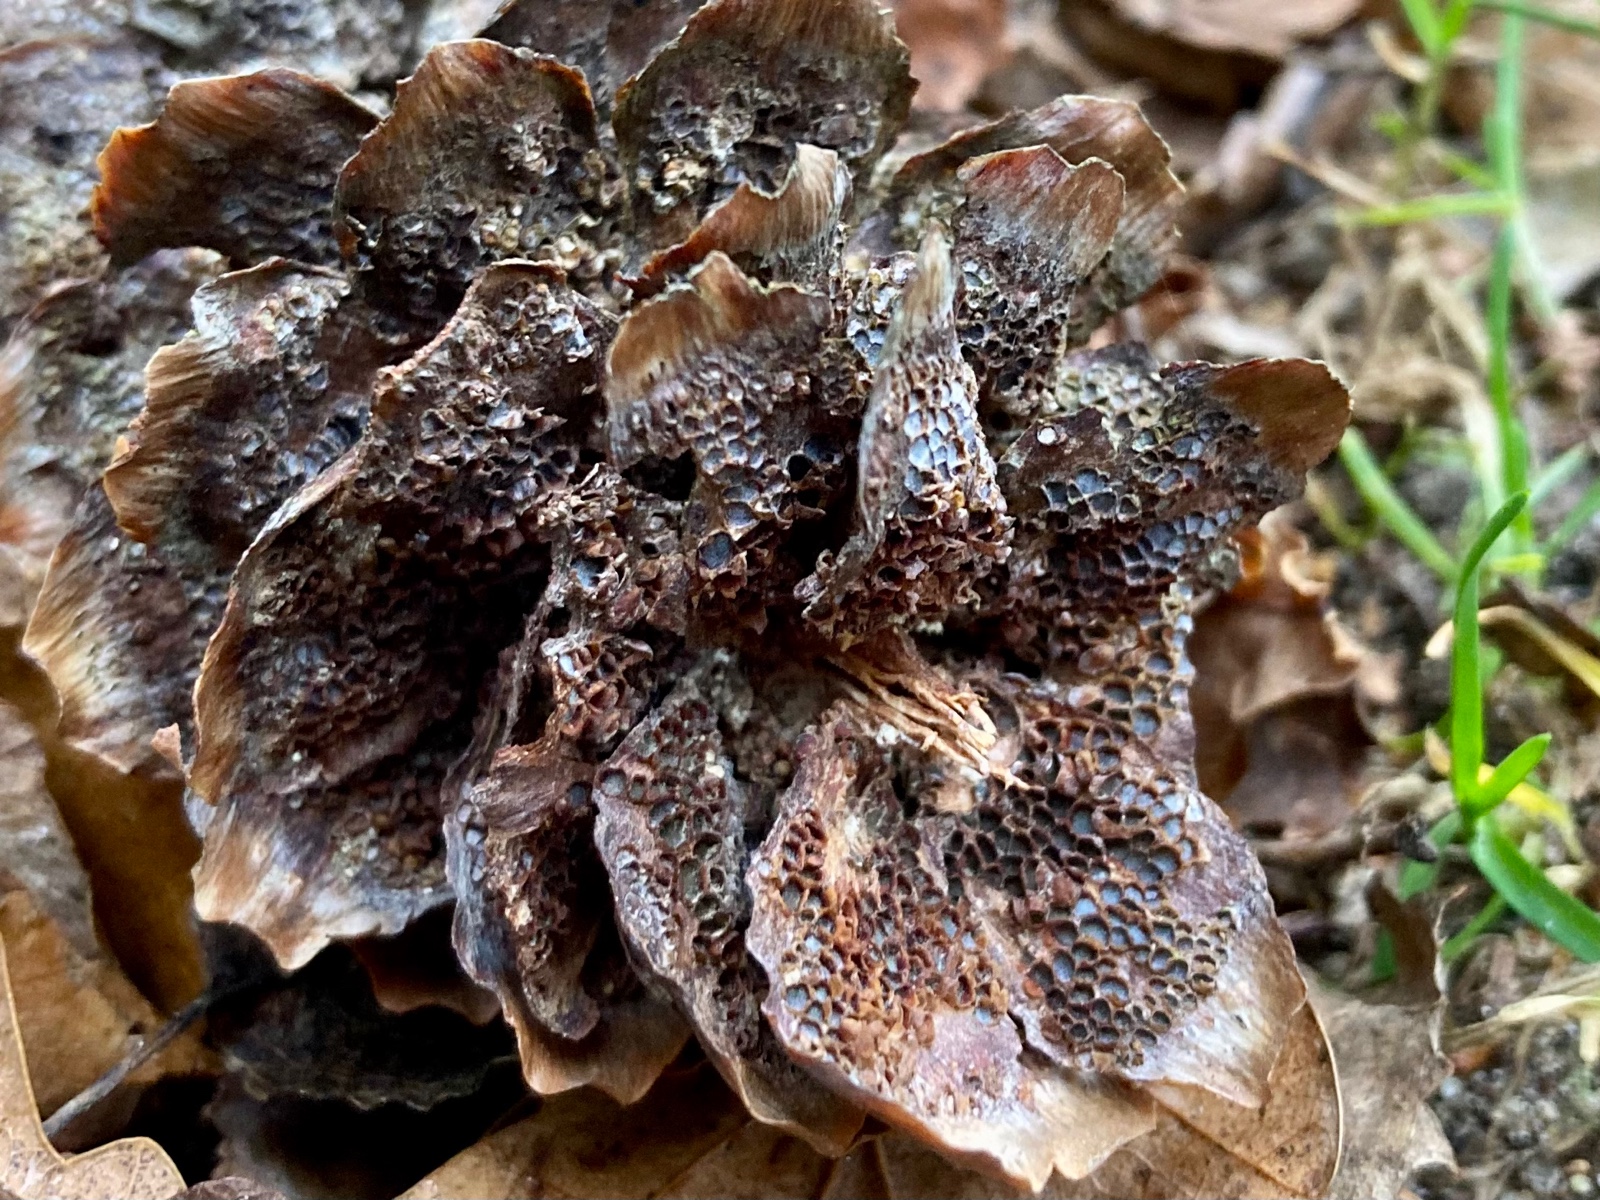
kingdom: Fungi
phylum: Basidiomycota
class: Pucciniomycetes
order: Pucciniales
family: Pucciniastraceae
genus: Thekopsora
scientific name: Thekopsora areolata
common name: grankogle-nålerust
